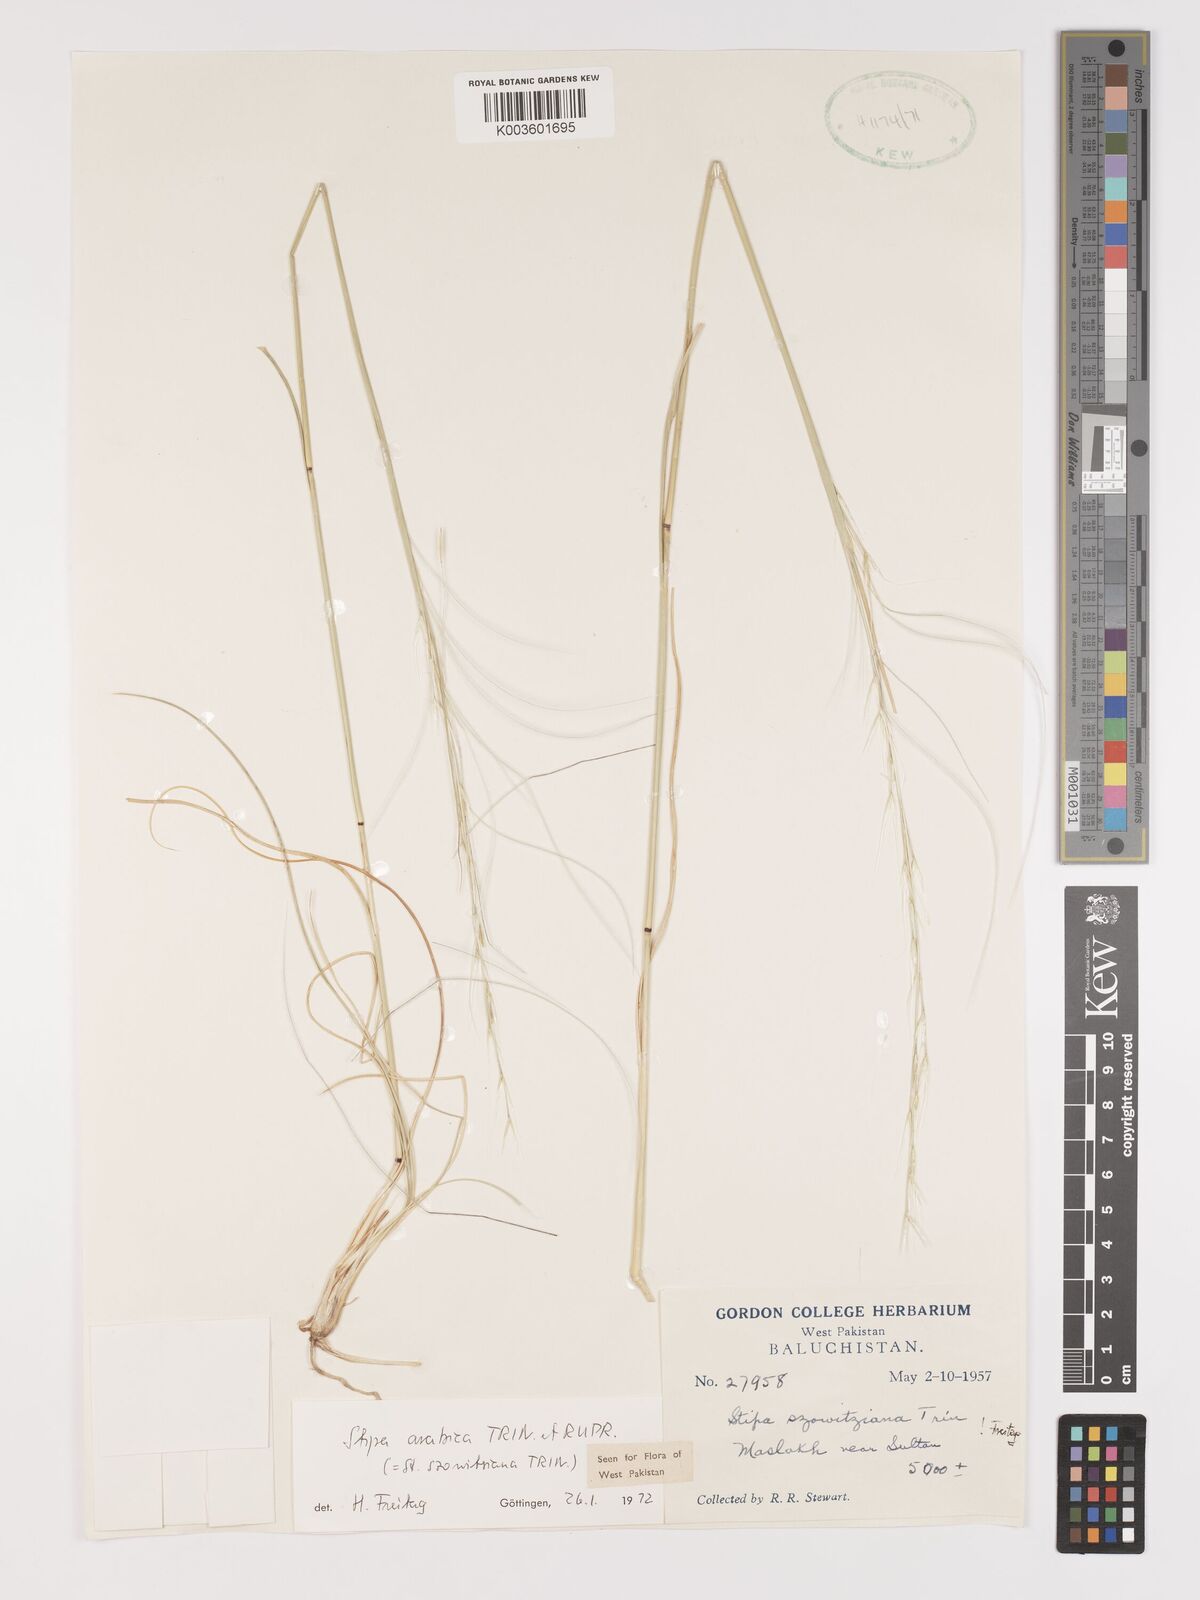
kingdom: Plantae
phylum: Tracheophyta
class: Liliopsida
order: Poales
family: Poaceae
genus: Stipa
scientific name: Stipa arabica
